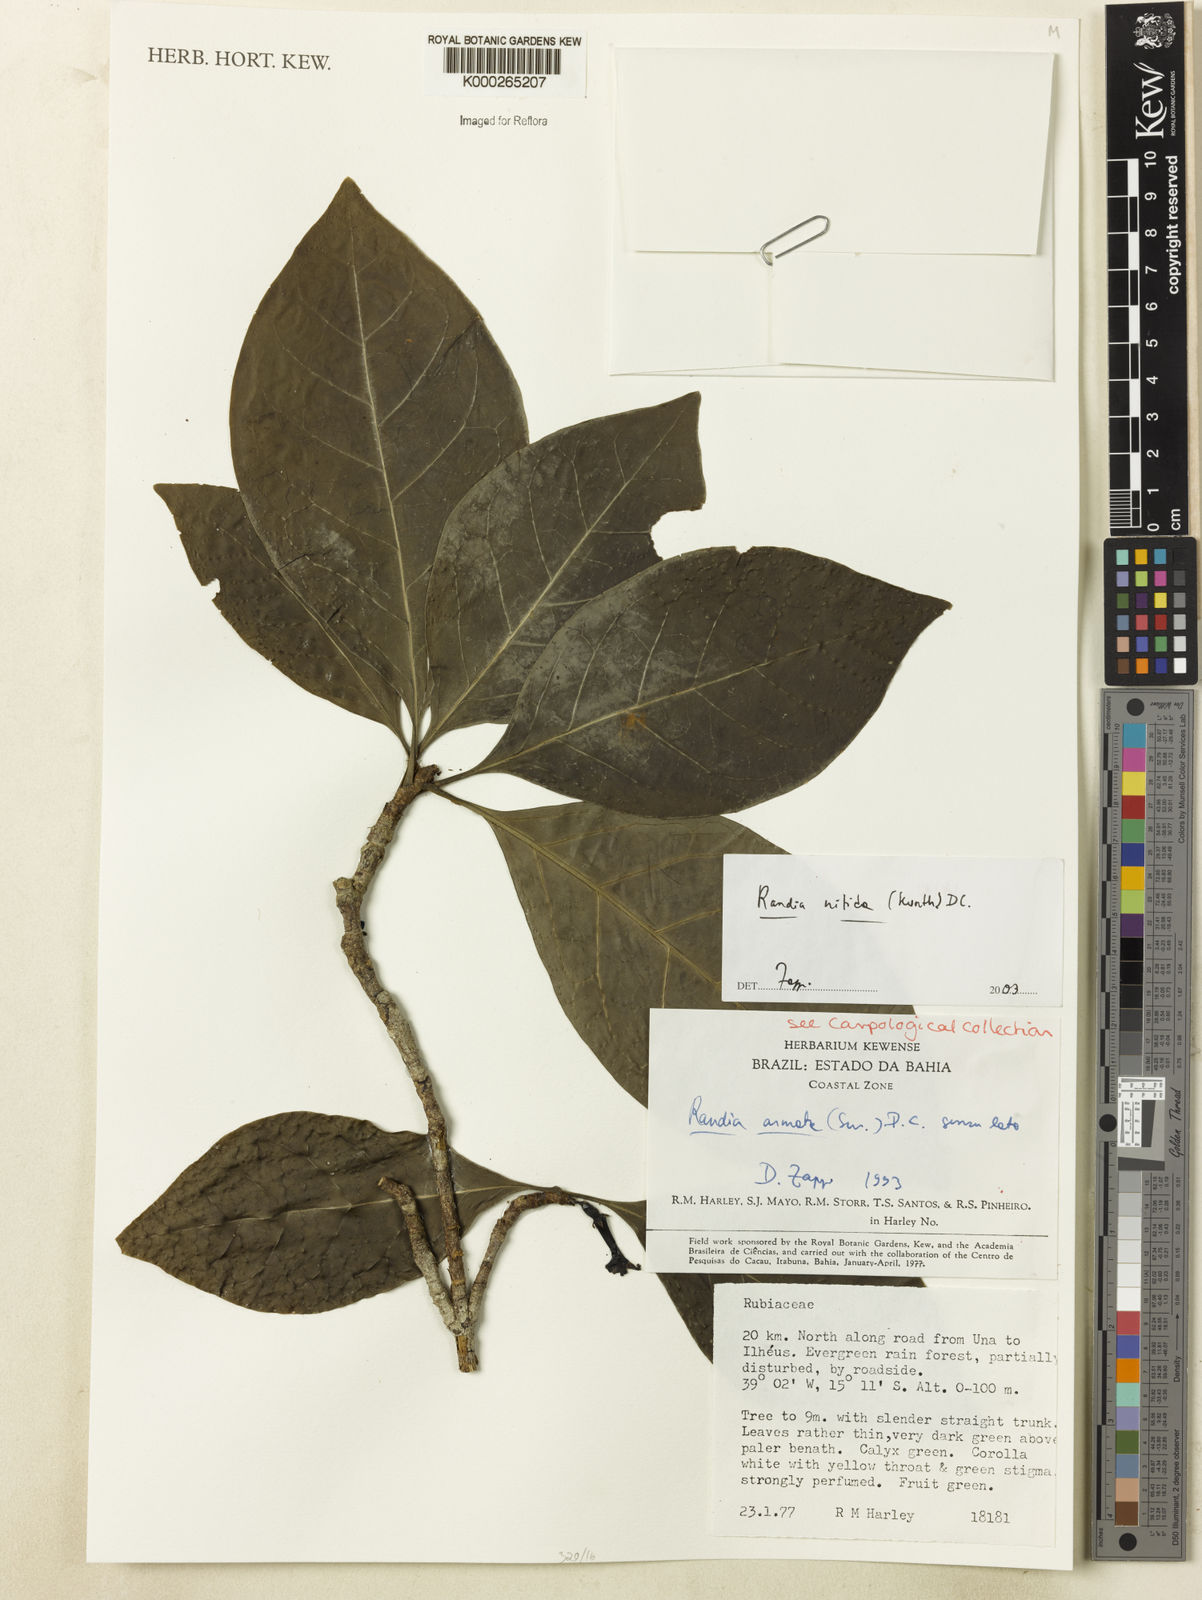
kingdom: Plantae
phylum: Tracheophyta
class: Magnoliopsida
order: Gentianales
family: Rubiaceae
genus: Randia
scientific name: Randia nitida
